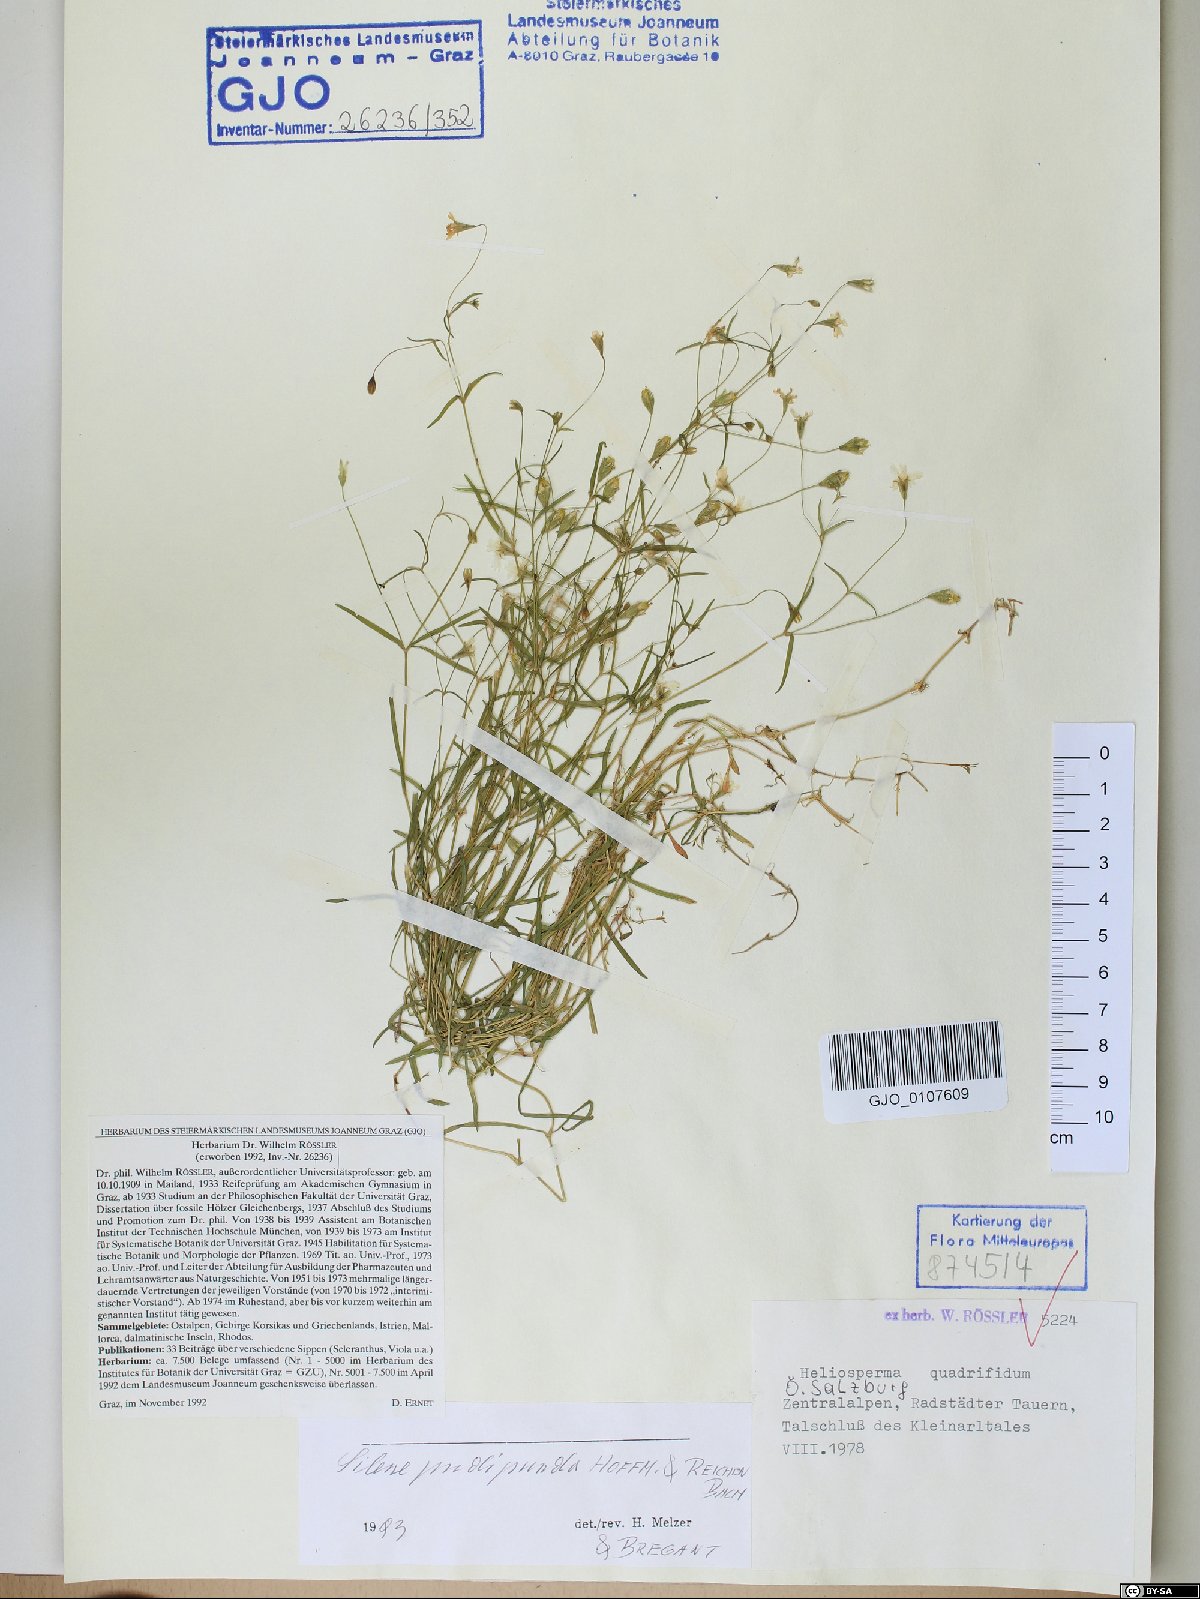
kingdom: Plantae
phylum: Tracheophyta
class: Magnoliopsida
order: Caryophyllales
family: Caryophyllaceae
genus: Heliosperma
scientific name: Heliosperma pudibundum
